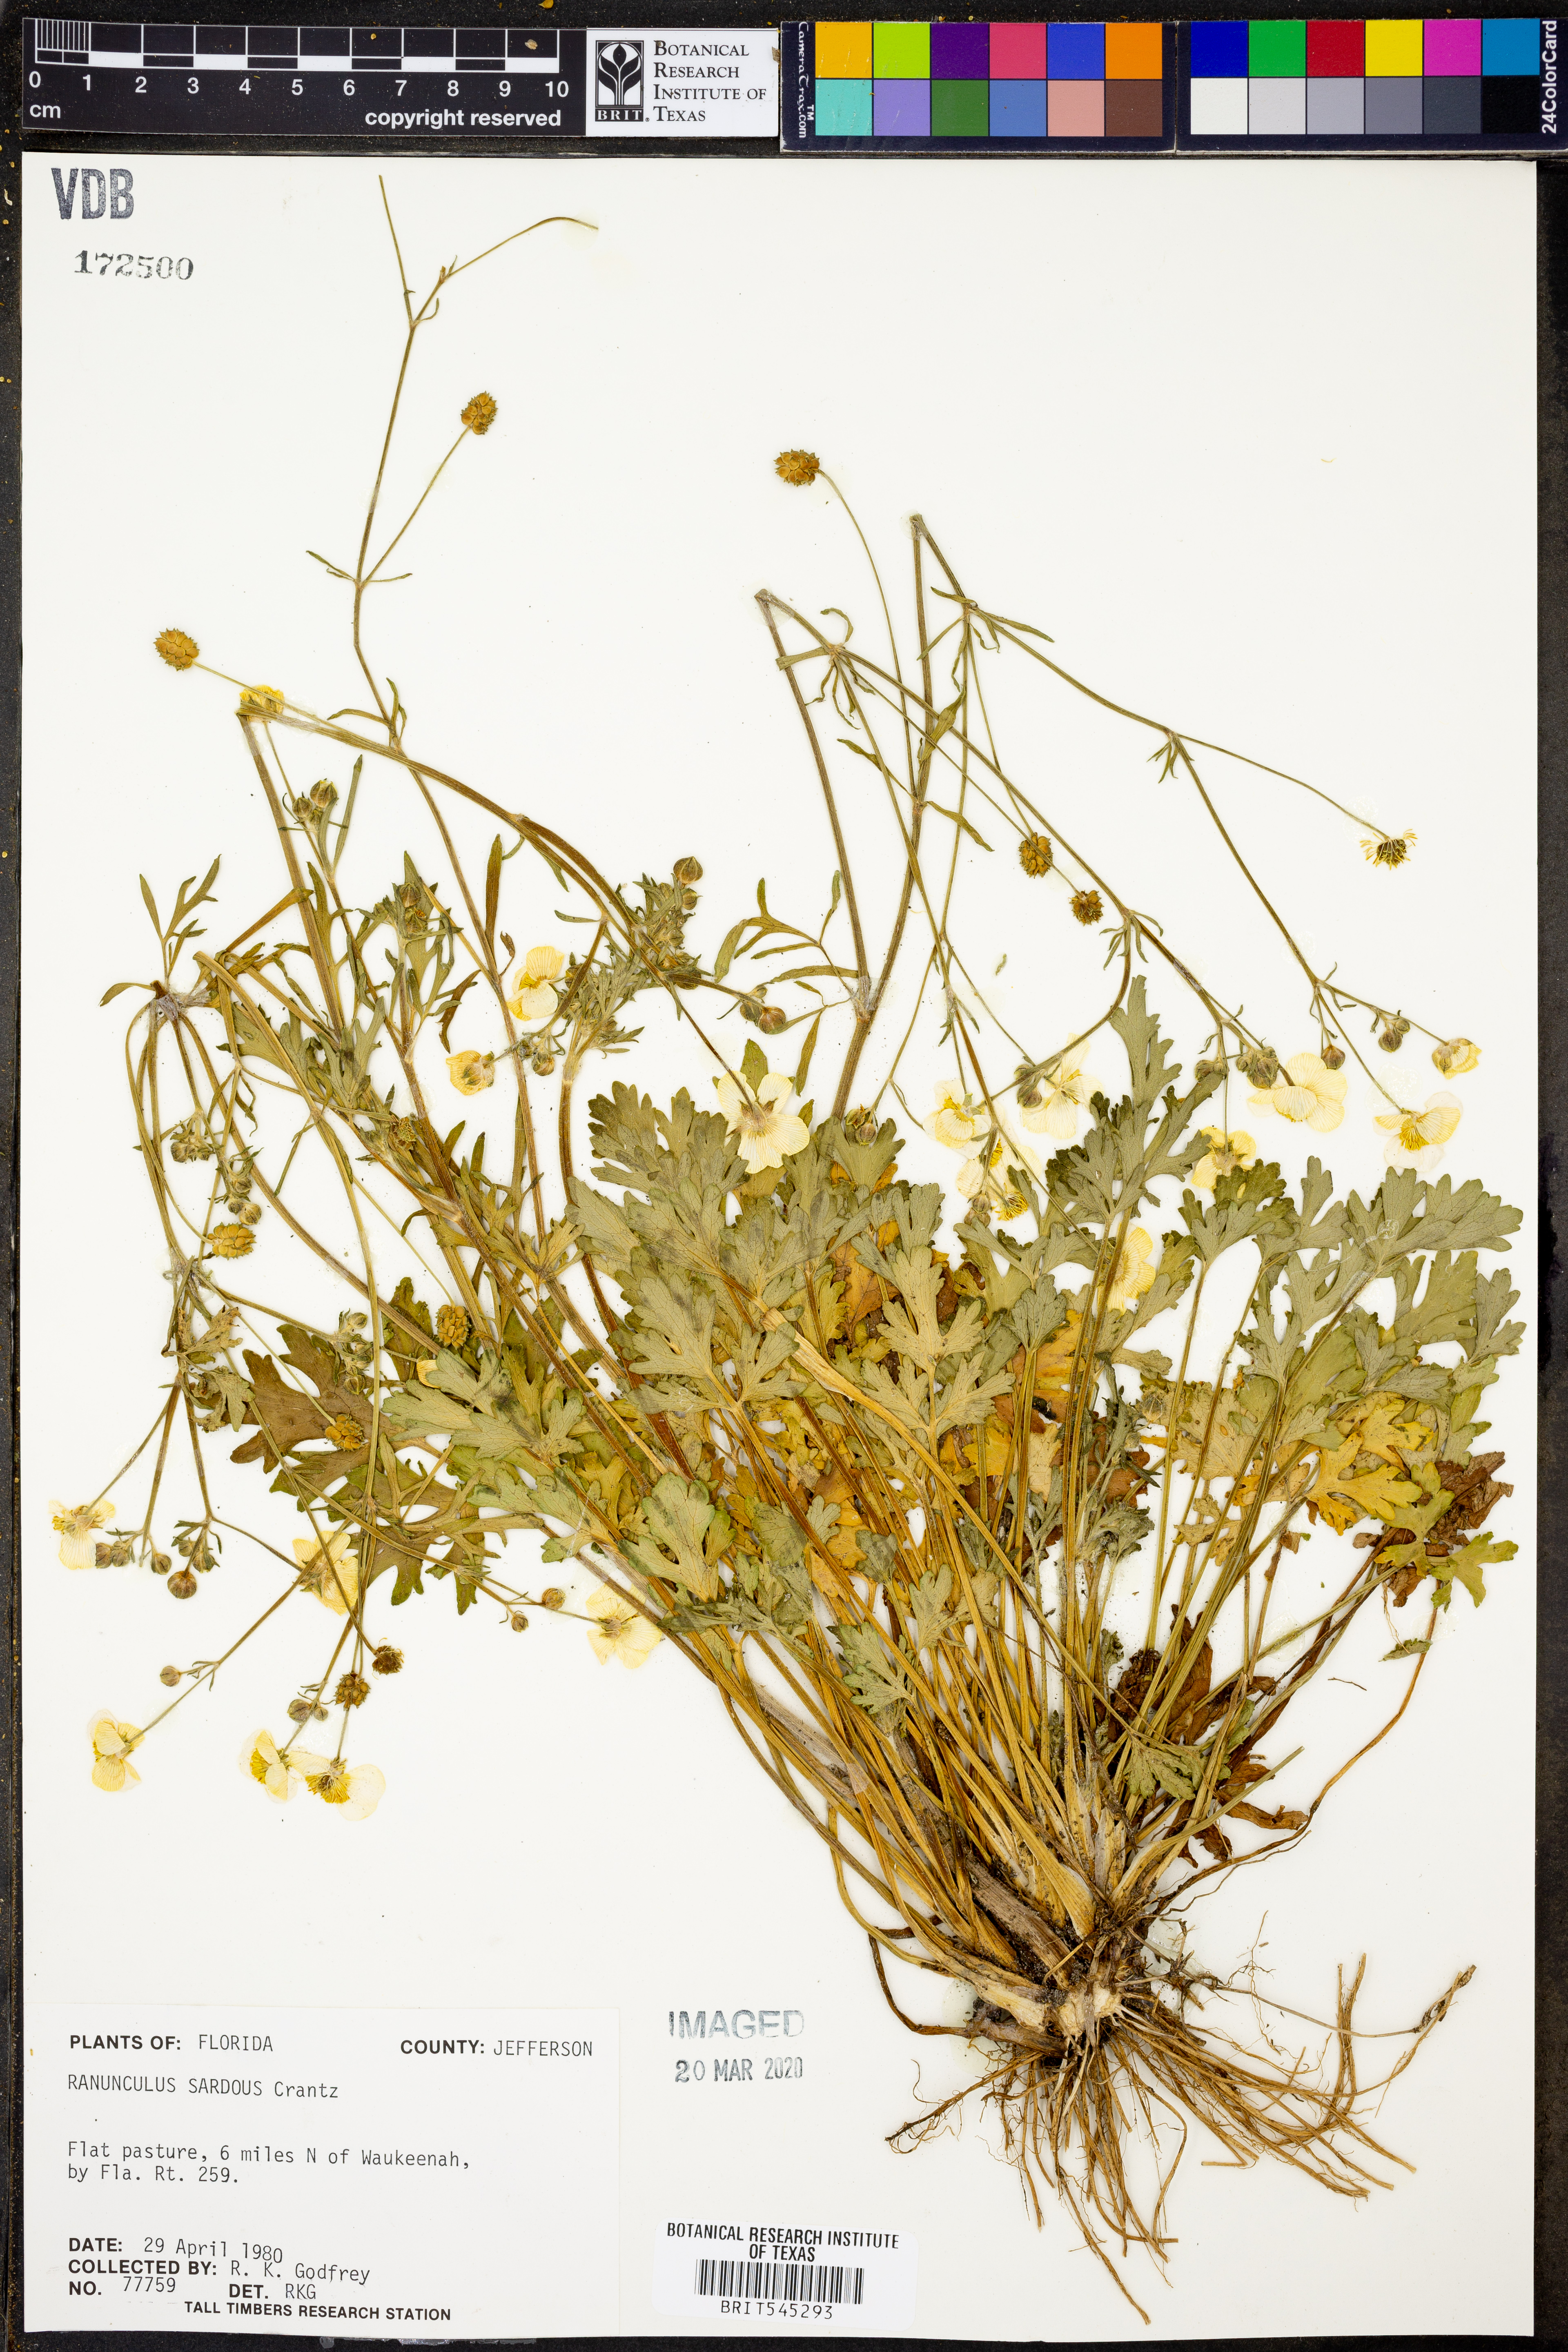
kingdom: Plantae
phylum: Tracheophyta
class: Magnoliopsida
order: Ranunculales
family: Ranunculaceae
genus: Ranunculus
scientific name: Ranunculus sardous
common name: Hairy buttercup
